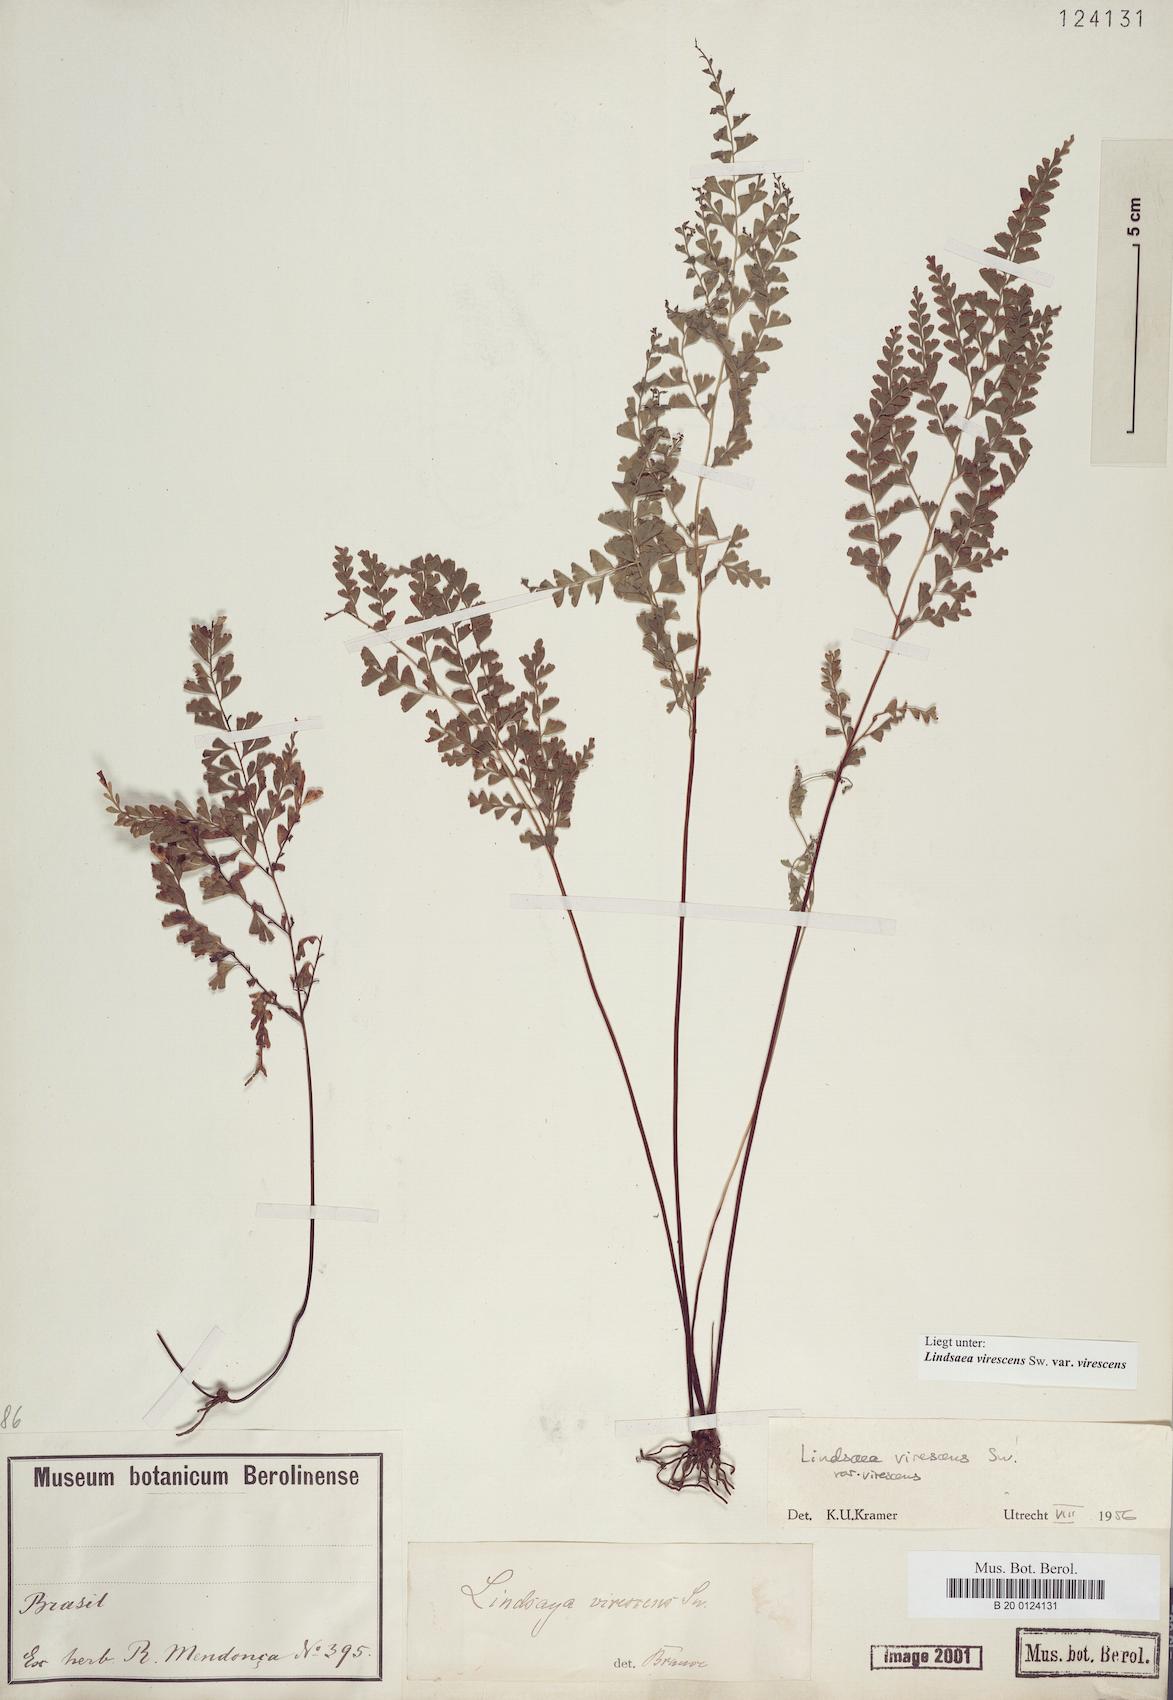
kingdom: Plantae
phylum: Tracheophyta
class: Polypodiopsida
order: Polypodiales
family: Lindsaeaceae
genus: Lindsaea
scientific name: Lindsaea virescens
